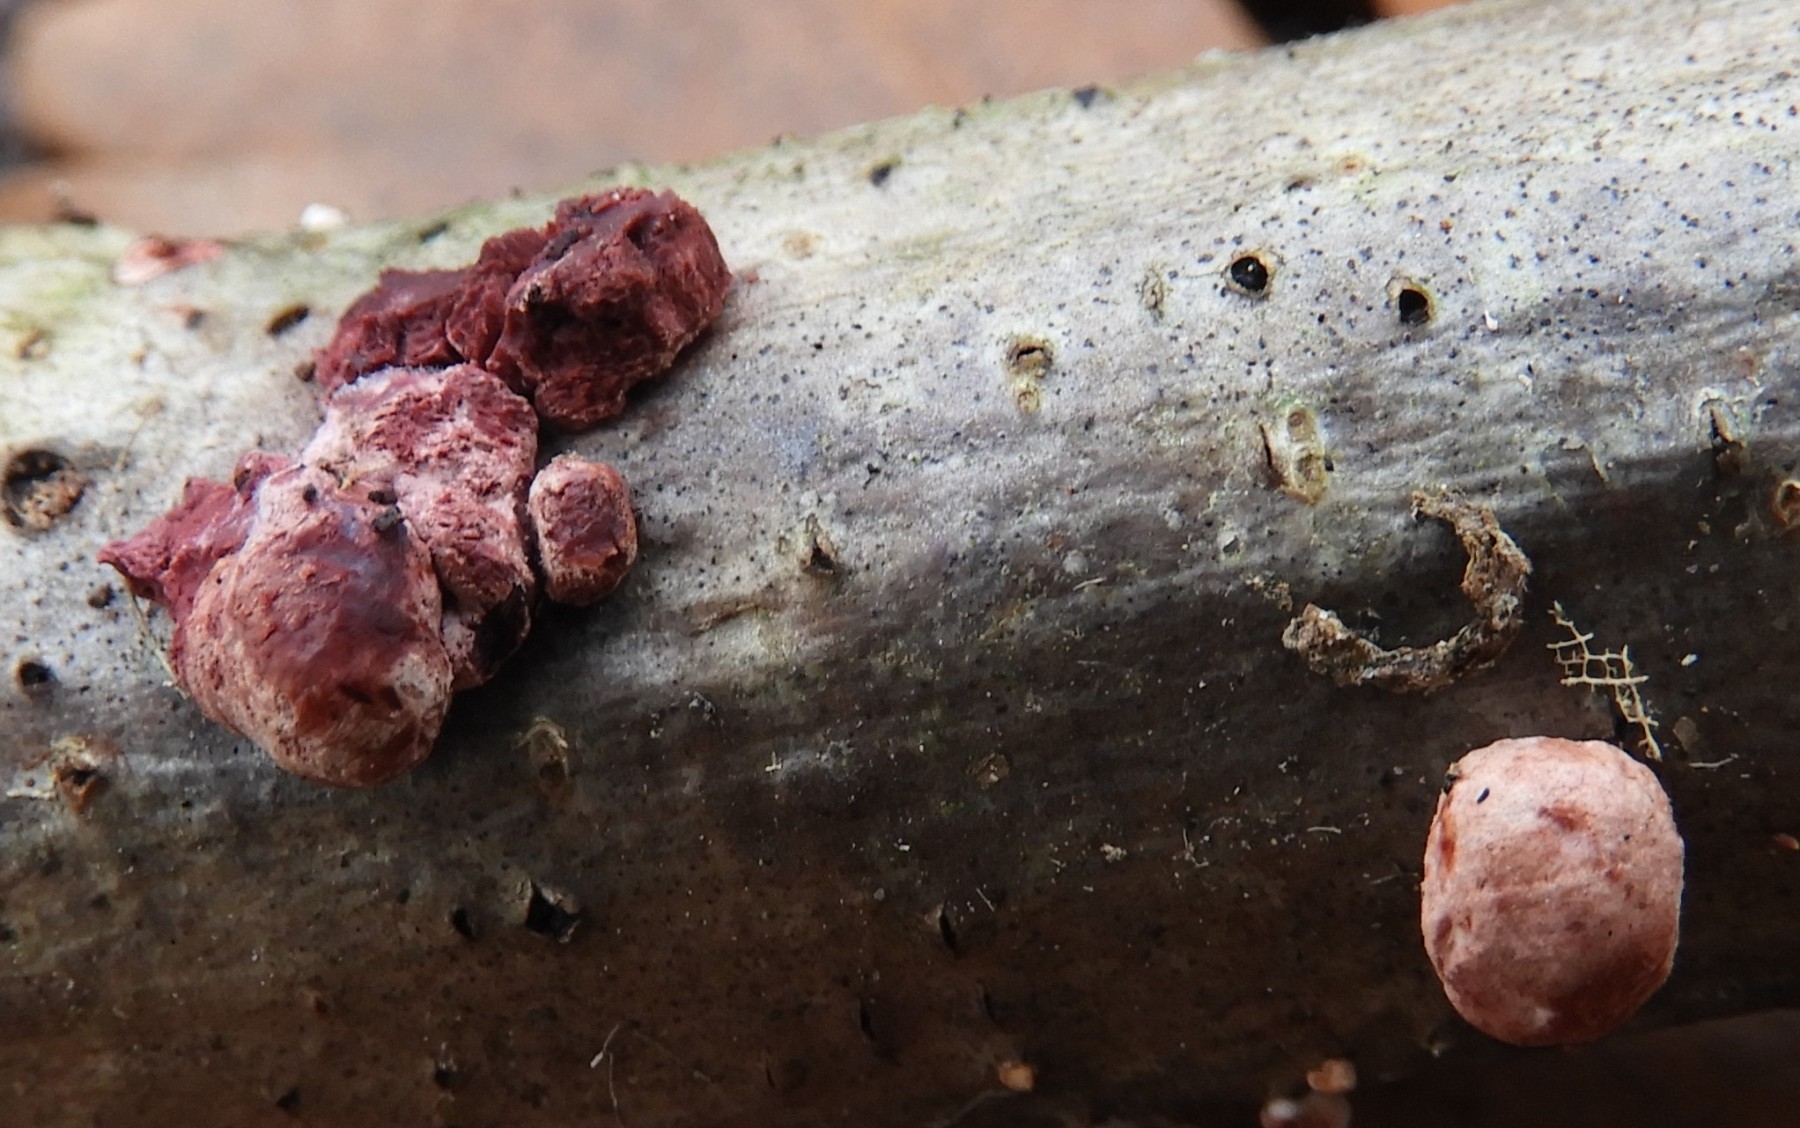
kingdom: Fungi
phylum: Ascomycota
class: Sordariomycetes
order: Hypocreales
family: Hypocreaceae
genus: Trichoderma
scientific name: Trichoderma europaeum
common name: rosabrun kødkerne
